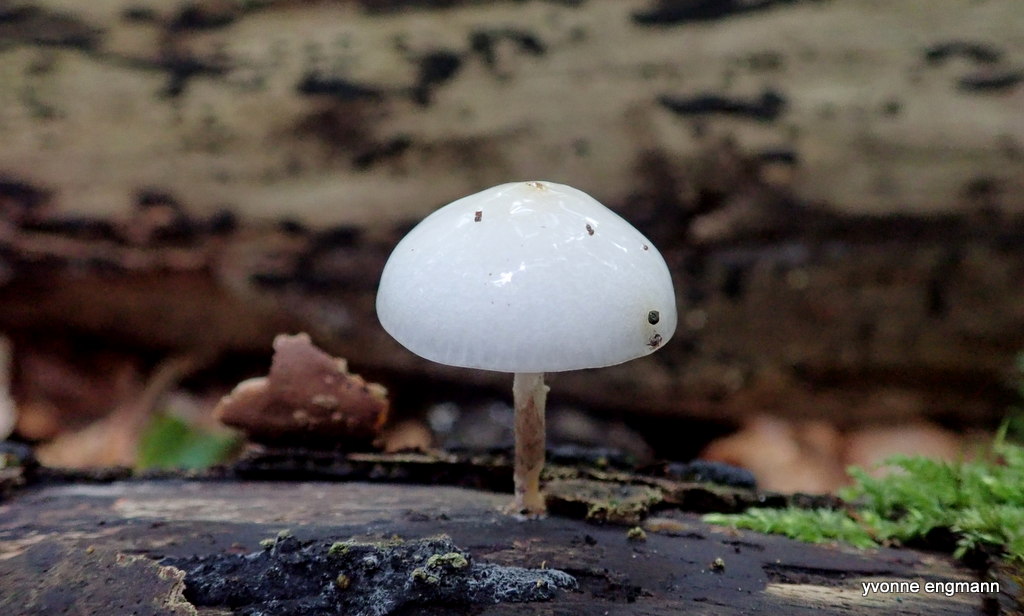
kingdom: Fungi
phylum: Basidiomycota
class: Agaricomycetes
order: Agaricales
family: Physalacriaceae
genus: Mucidula
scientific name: Mucidula mucida
